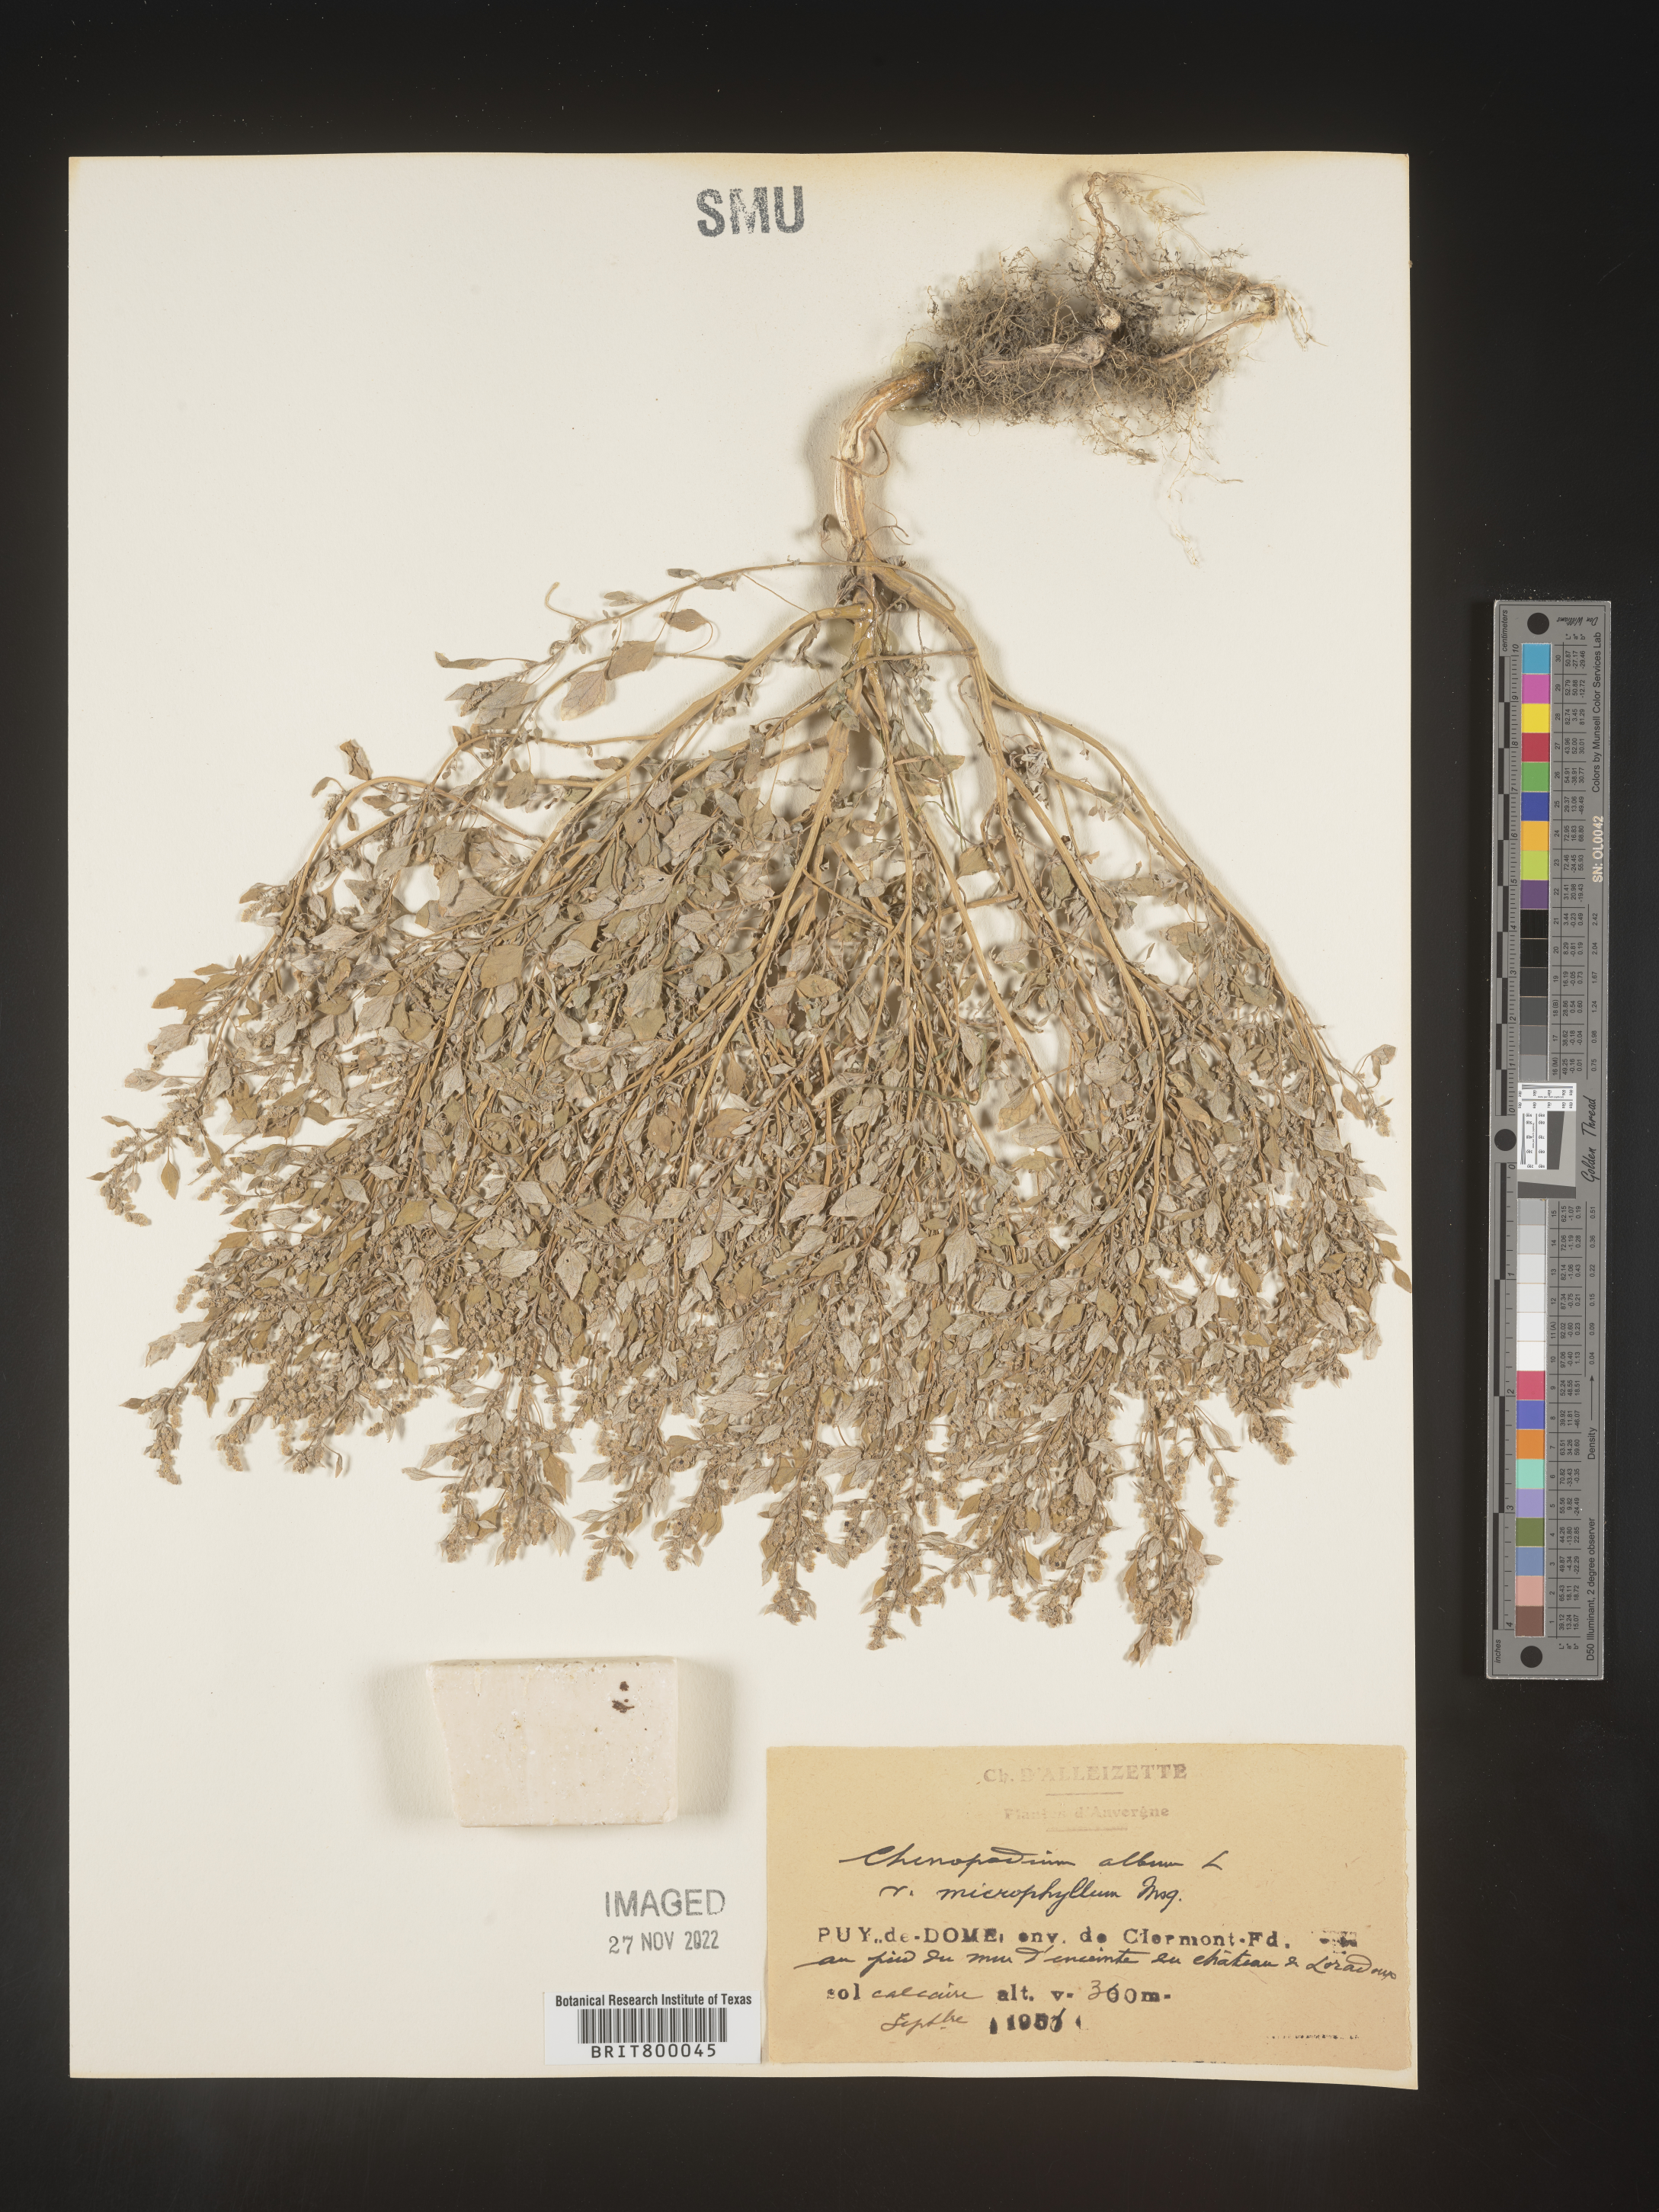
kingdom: Plantae
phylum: Tracheophyta
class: Magnoliopsida
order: Caryophyllales
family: Amaranthaceae
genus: Chenopodium
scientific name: Chenopodium album
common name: Fat-hen
